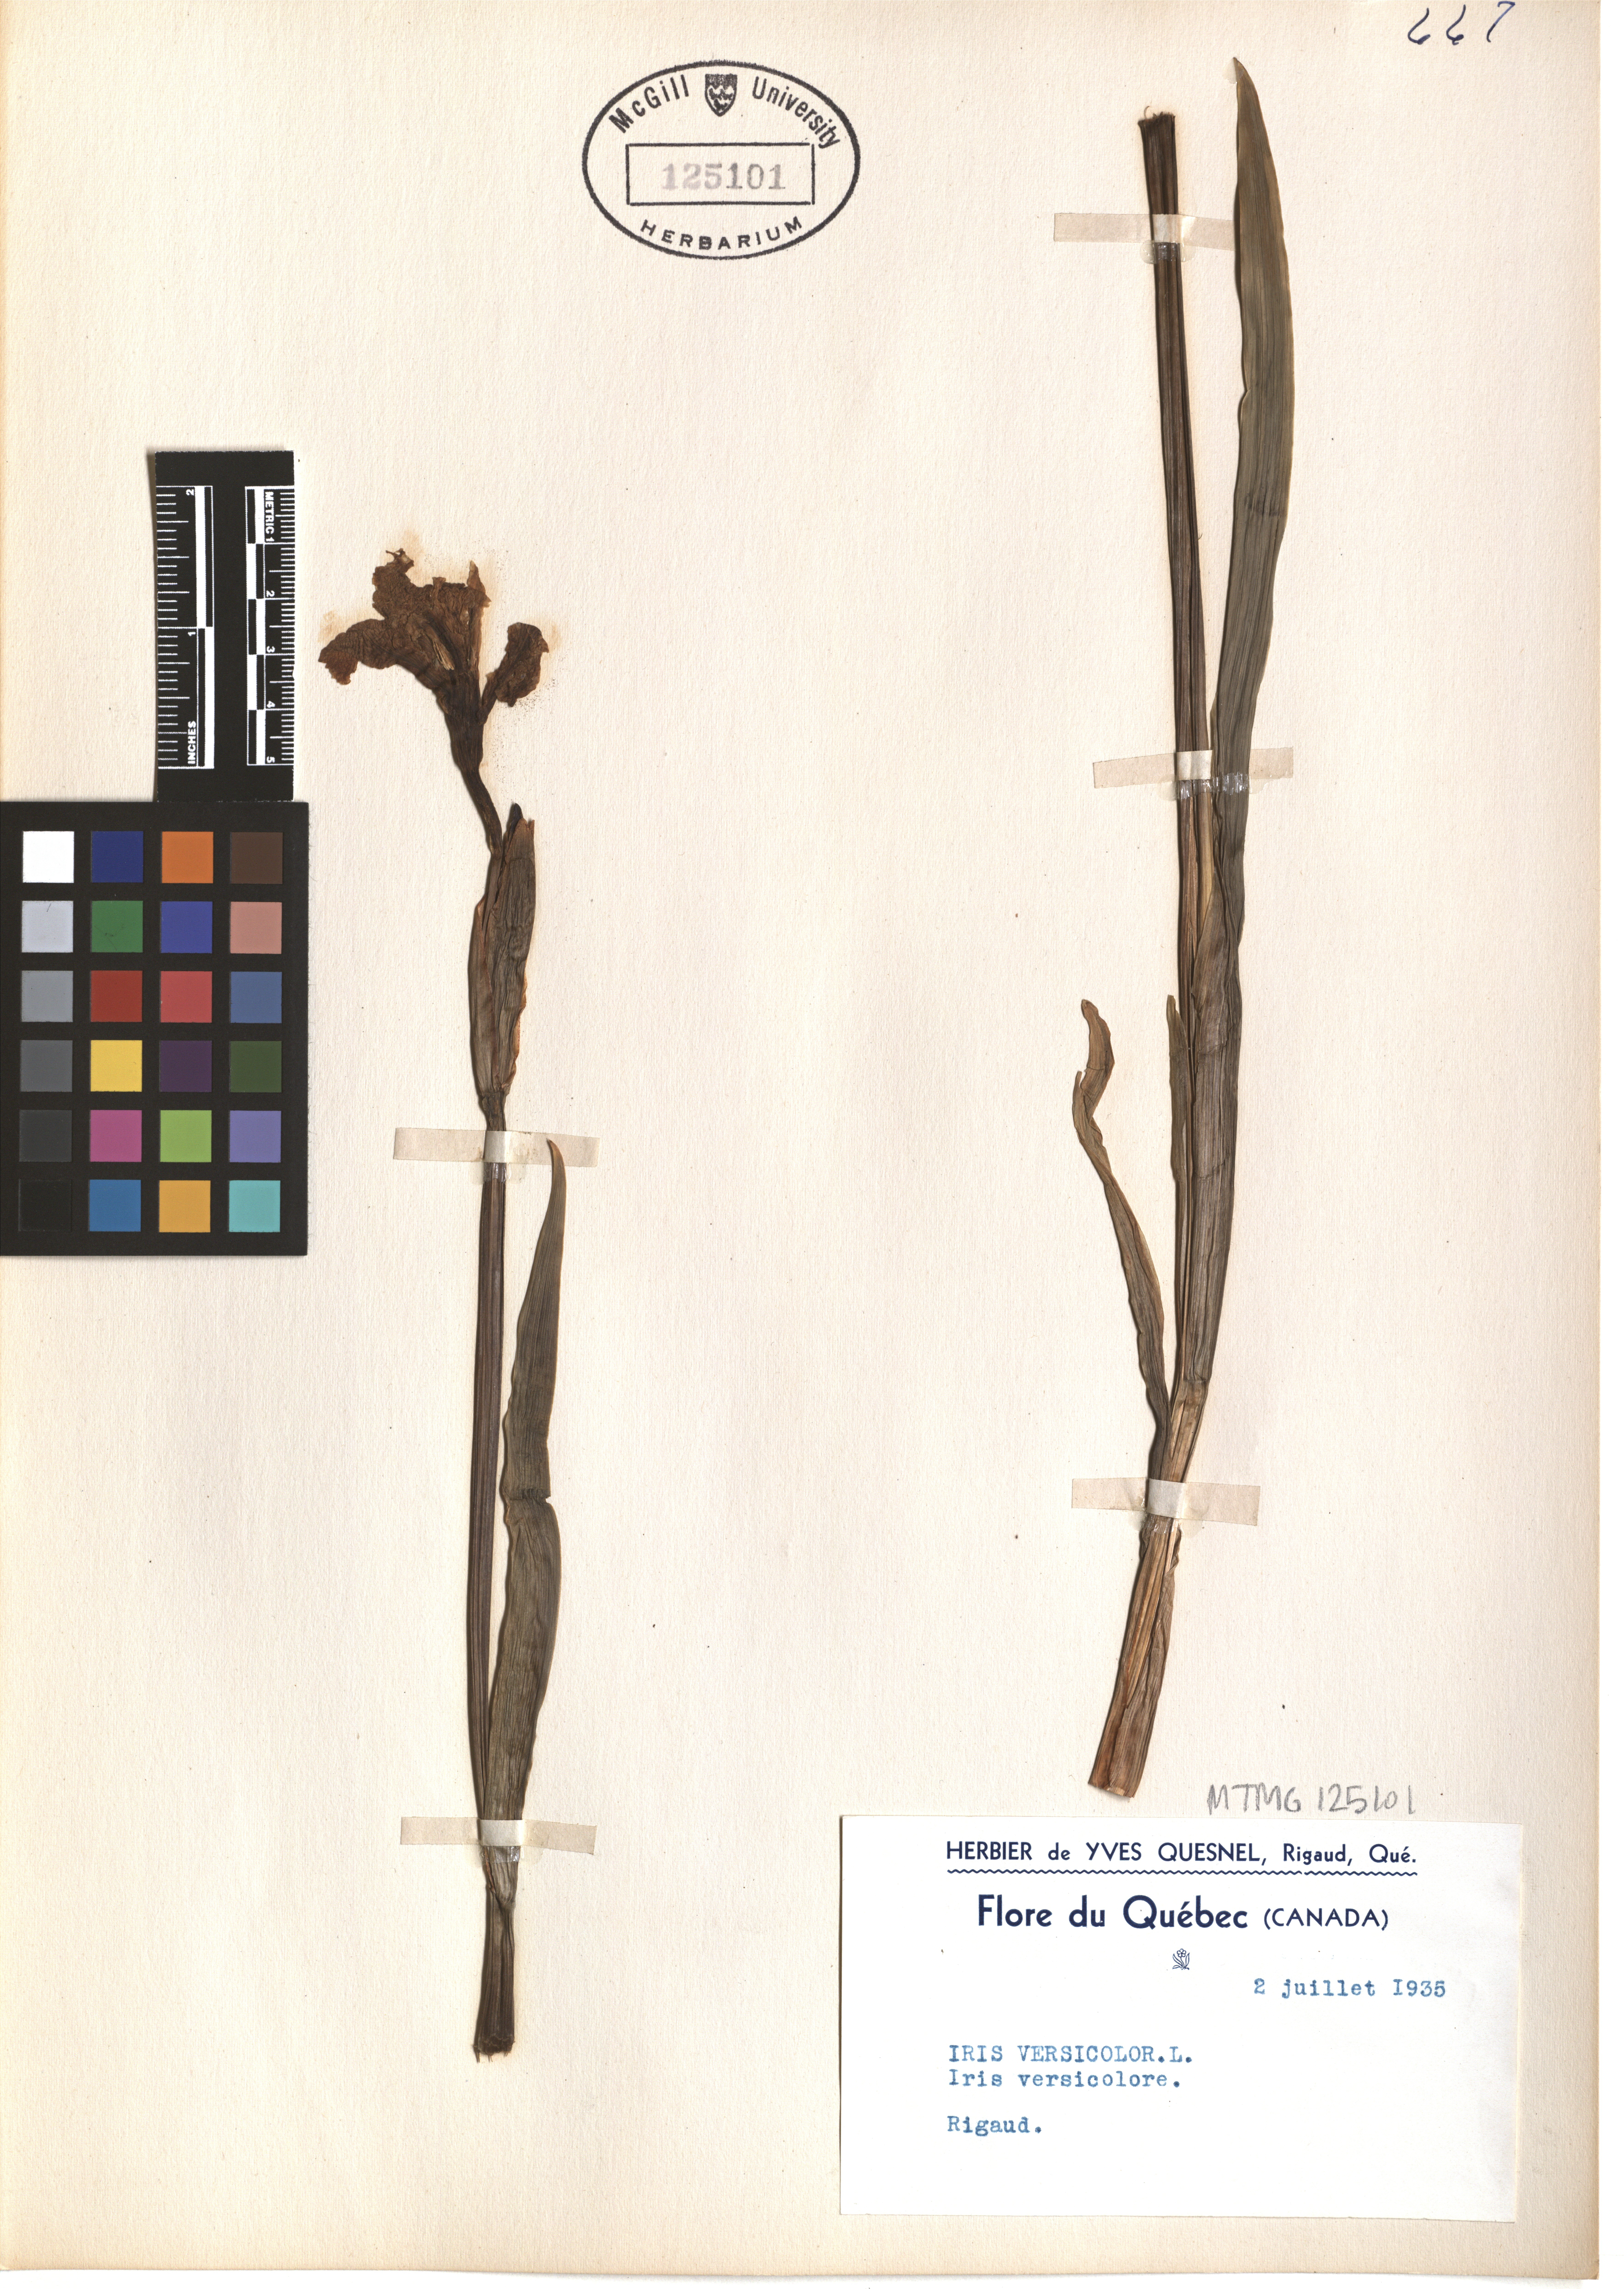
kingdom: Plantae
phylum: Tracheophyta
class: Liliopsida
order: Asparagales
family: Iridaceae
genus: Iris
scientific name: Iris versicolor
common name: Purple iris
